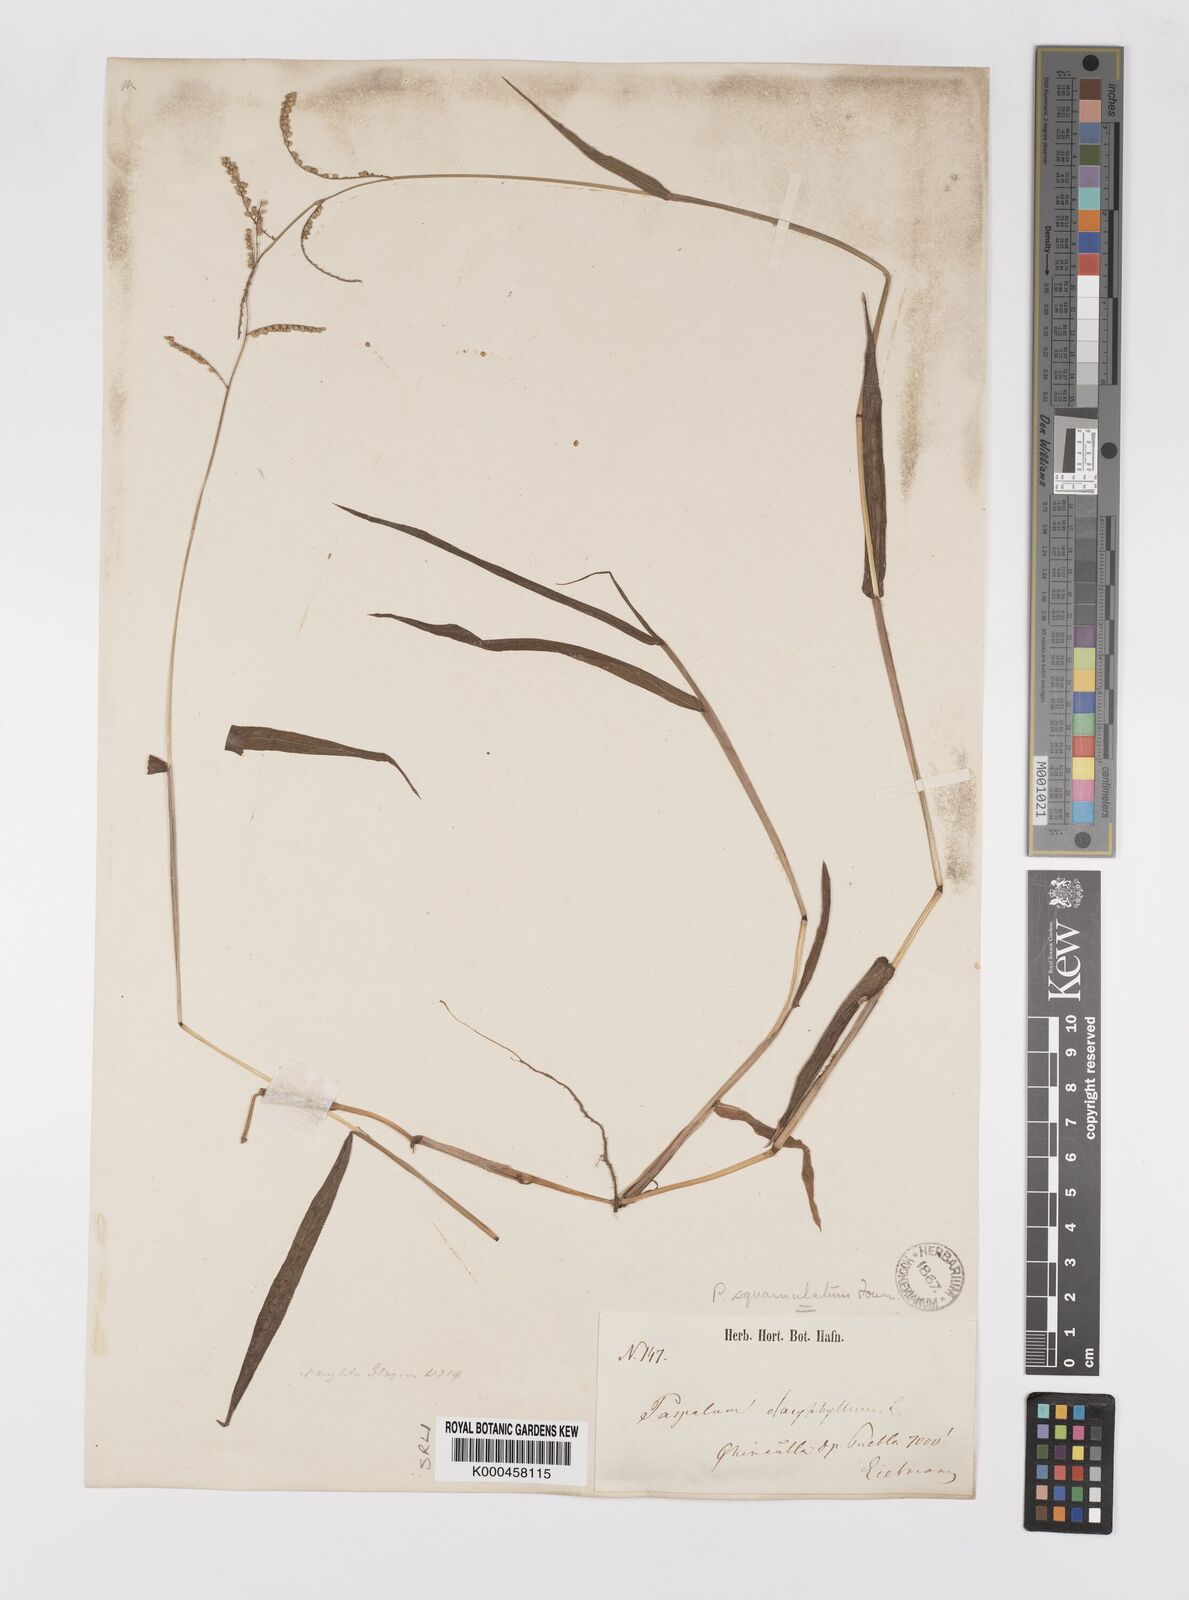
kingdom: Plantae
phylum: Tracheophyta
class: Liliopsida
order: Poales
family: Poaceae
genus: Paspalum
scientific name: Paspalum
